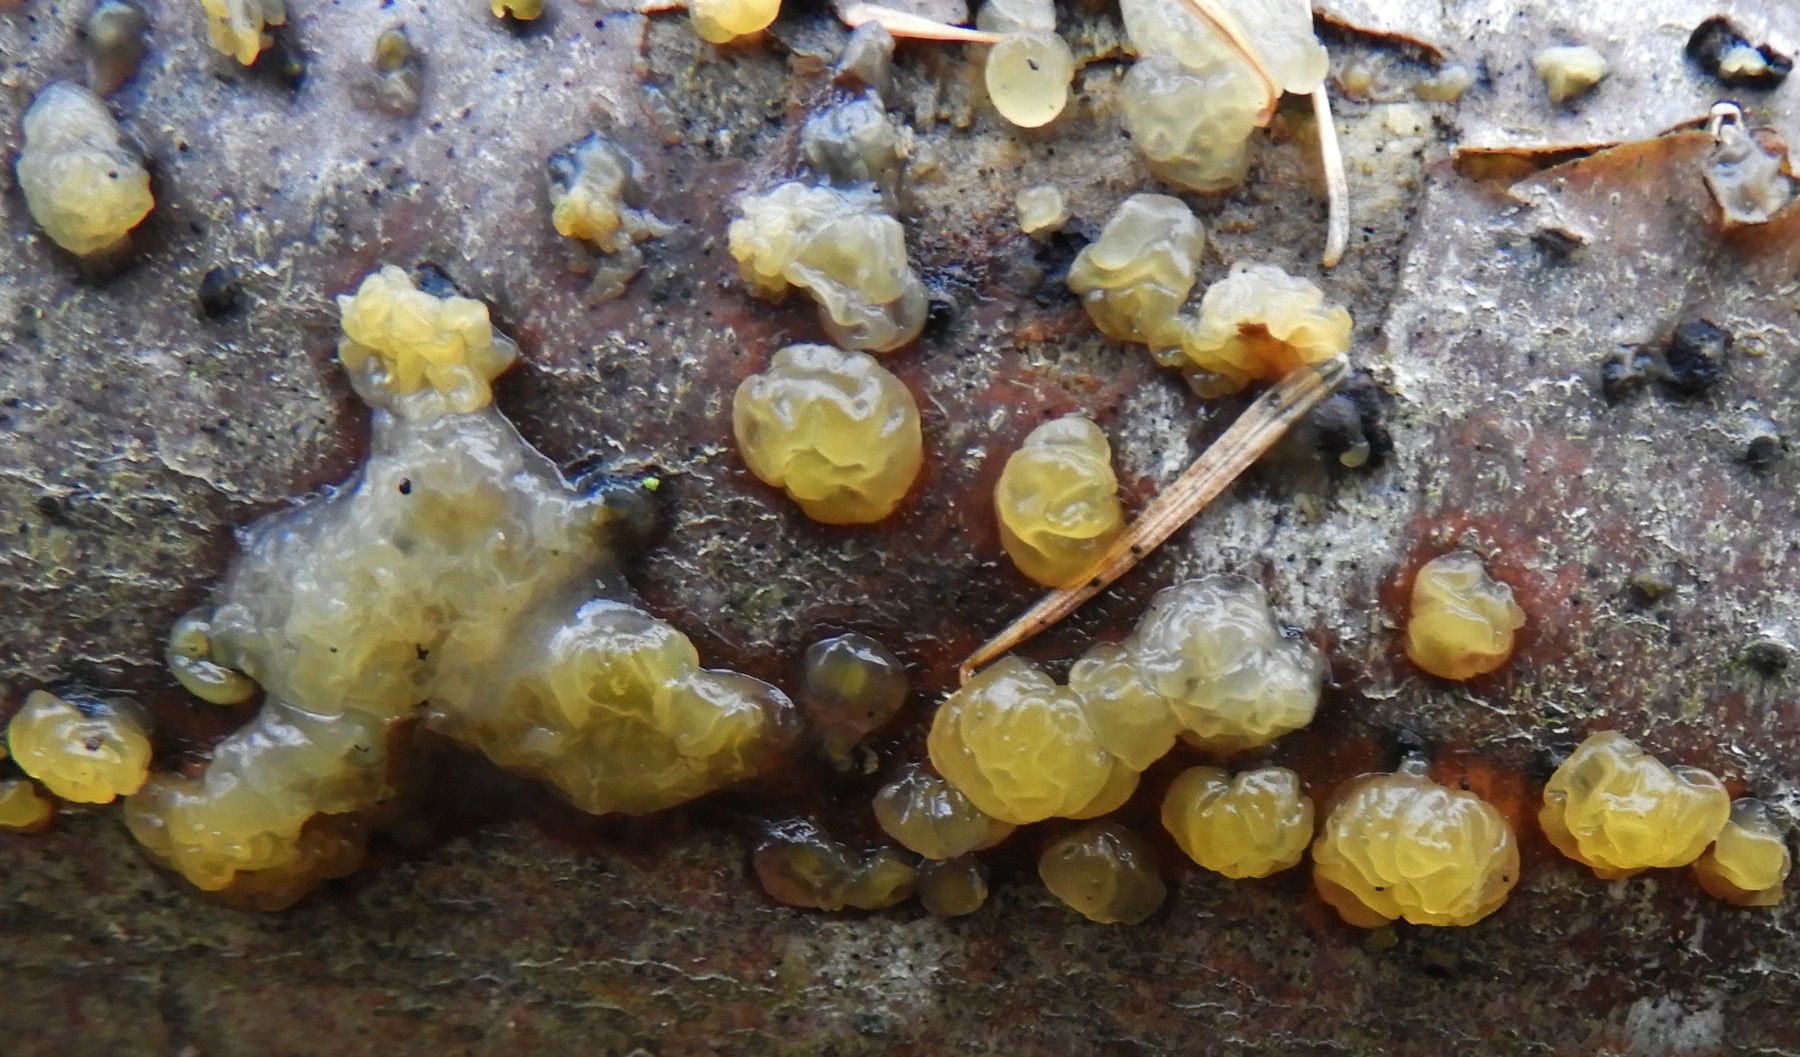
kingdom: Fungi
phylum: Basidiomycota
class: Dacrymycetes
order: Dacrymycetales
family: Dacrymycetaceae
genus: Dacrymyces
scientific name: Dacrymyces lacrymalis
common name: rynket tåresvamp
